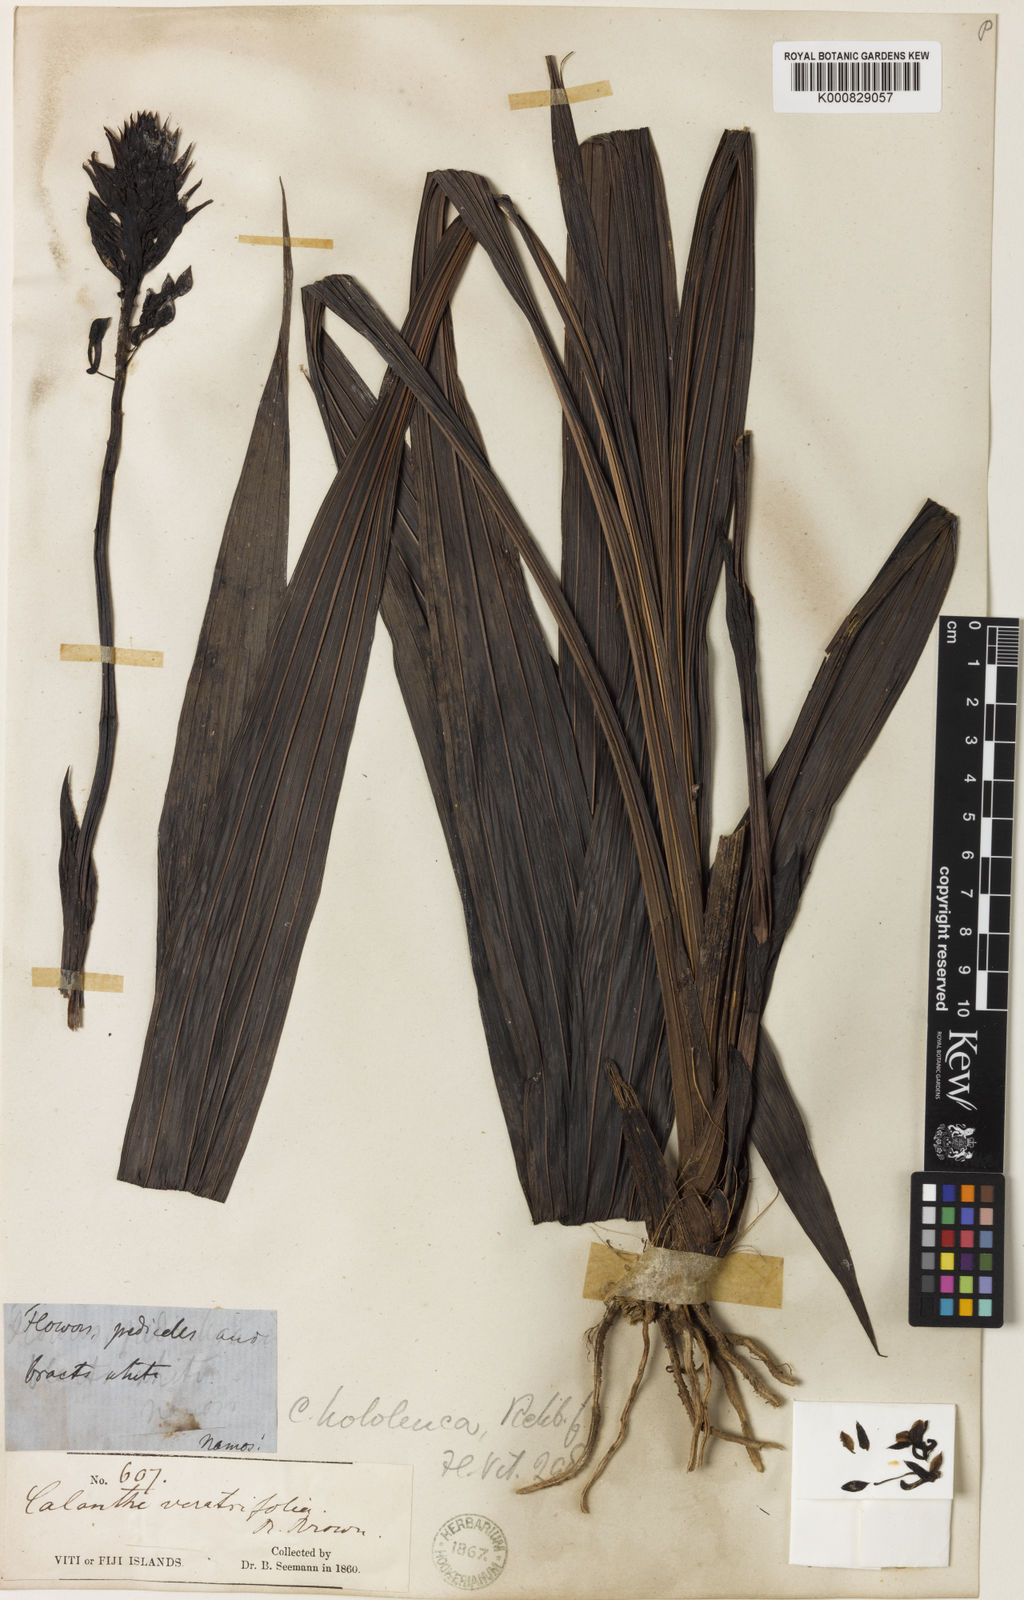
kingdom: Plantae
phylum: Tracheophyta
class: Liliopsida
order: Asparagales
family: Orchidaceae
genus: Calanthe
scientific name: Calanthe hololeuca
